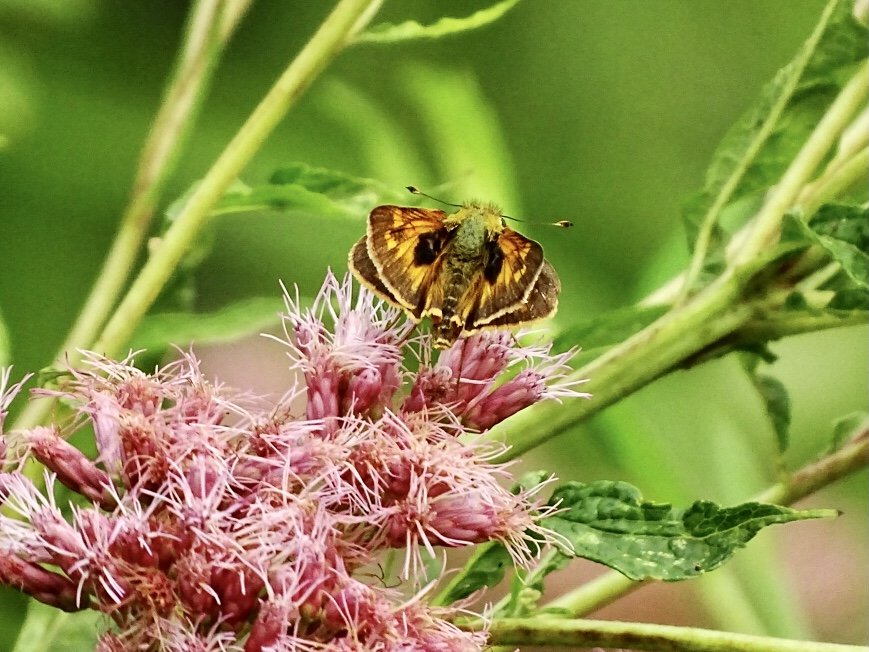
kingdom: Animalia
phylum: Arthropoda
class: Insecta
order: Lepidoptera
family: Hesperiidae
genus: Atalopedes
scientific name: Atalopedes campestris
